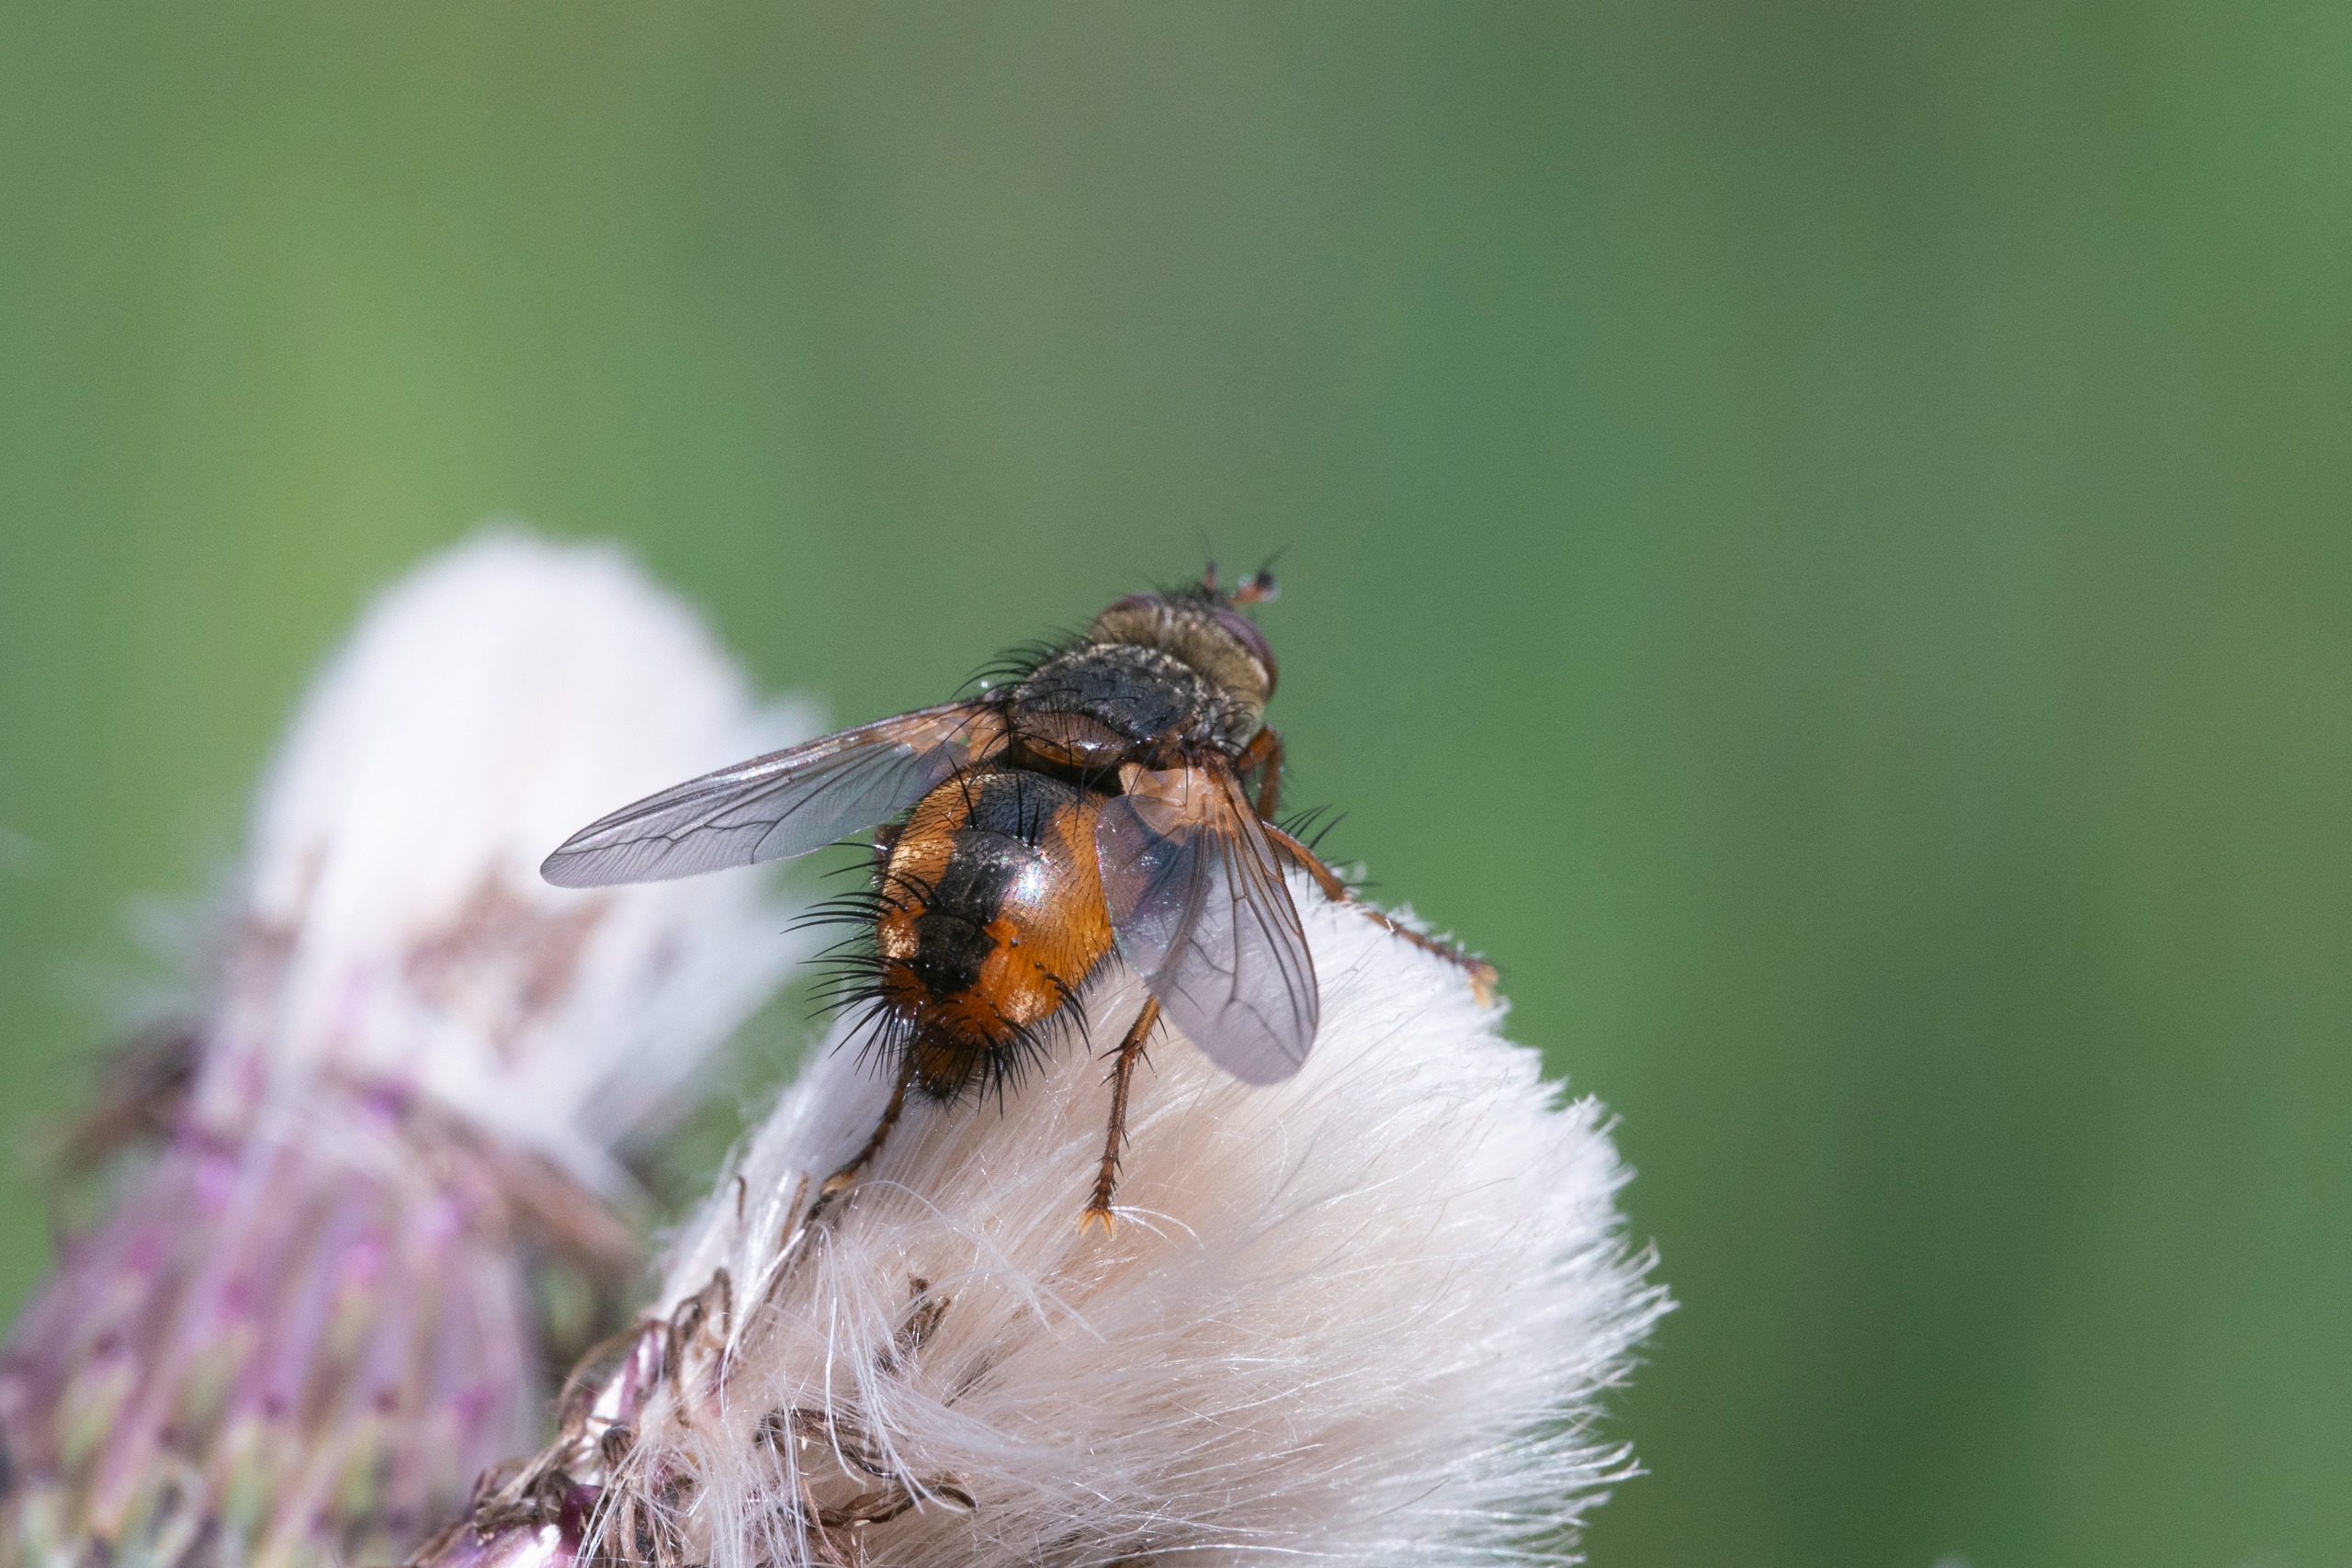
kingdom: Animalia
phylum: Arthropoda
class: Insecta
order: Diptera
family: Tachinidae
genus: Tachina
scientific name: Tachina fera
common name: Mellemfluen oskar
